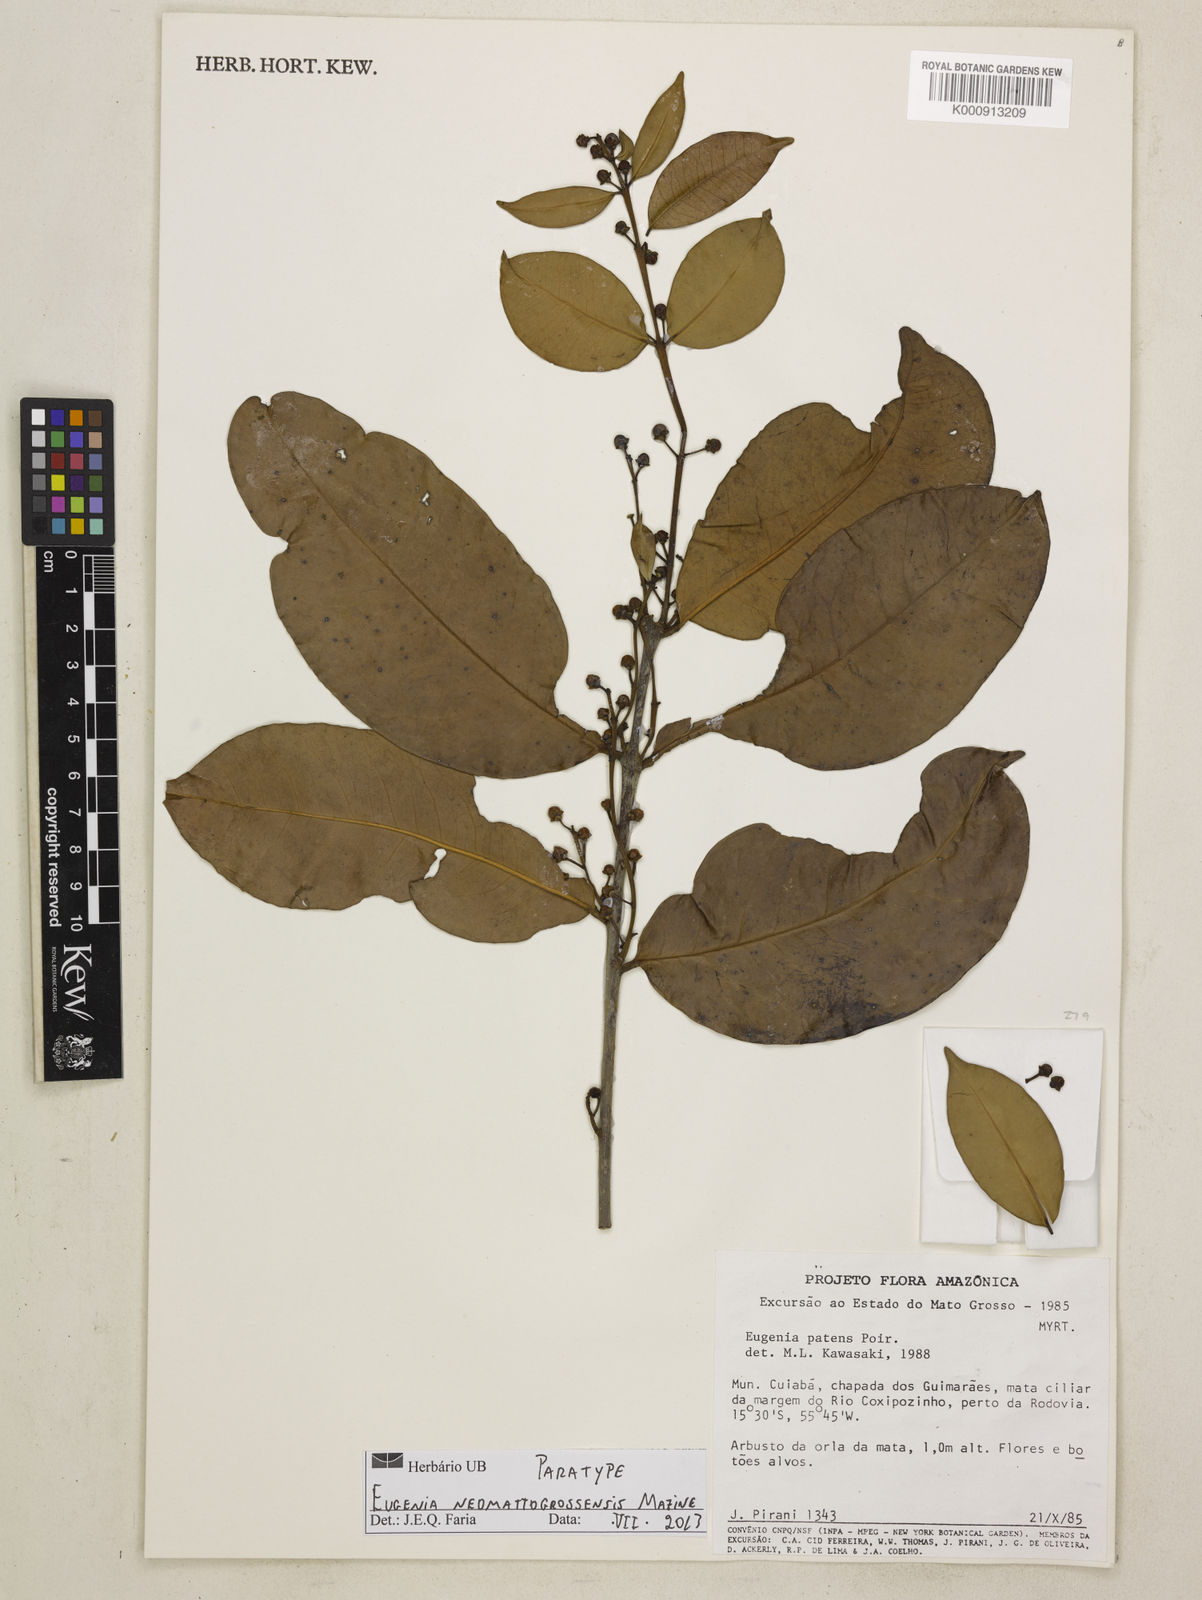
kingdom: Plantae
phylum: Tracheophyta
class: Magnoliopsida
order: Myrtales
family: Myrtaceae
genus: Eugenia
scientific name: Eugenia neomattogrossensis
